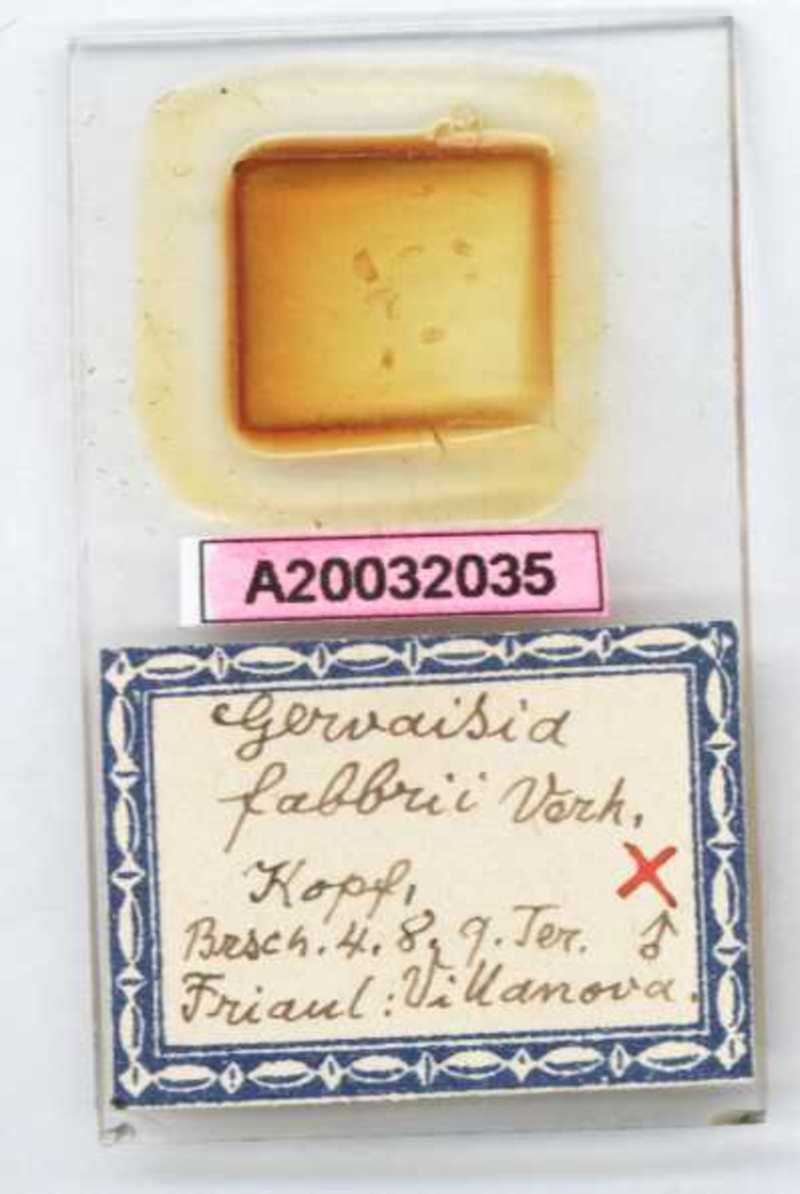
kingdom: Animalia
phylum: Arthropoda
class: Diplopoda
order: Glomerida
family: Glomeridae
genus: Trachysphaera
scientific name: Trachysphaera fabbrii
